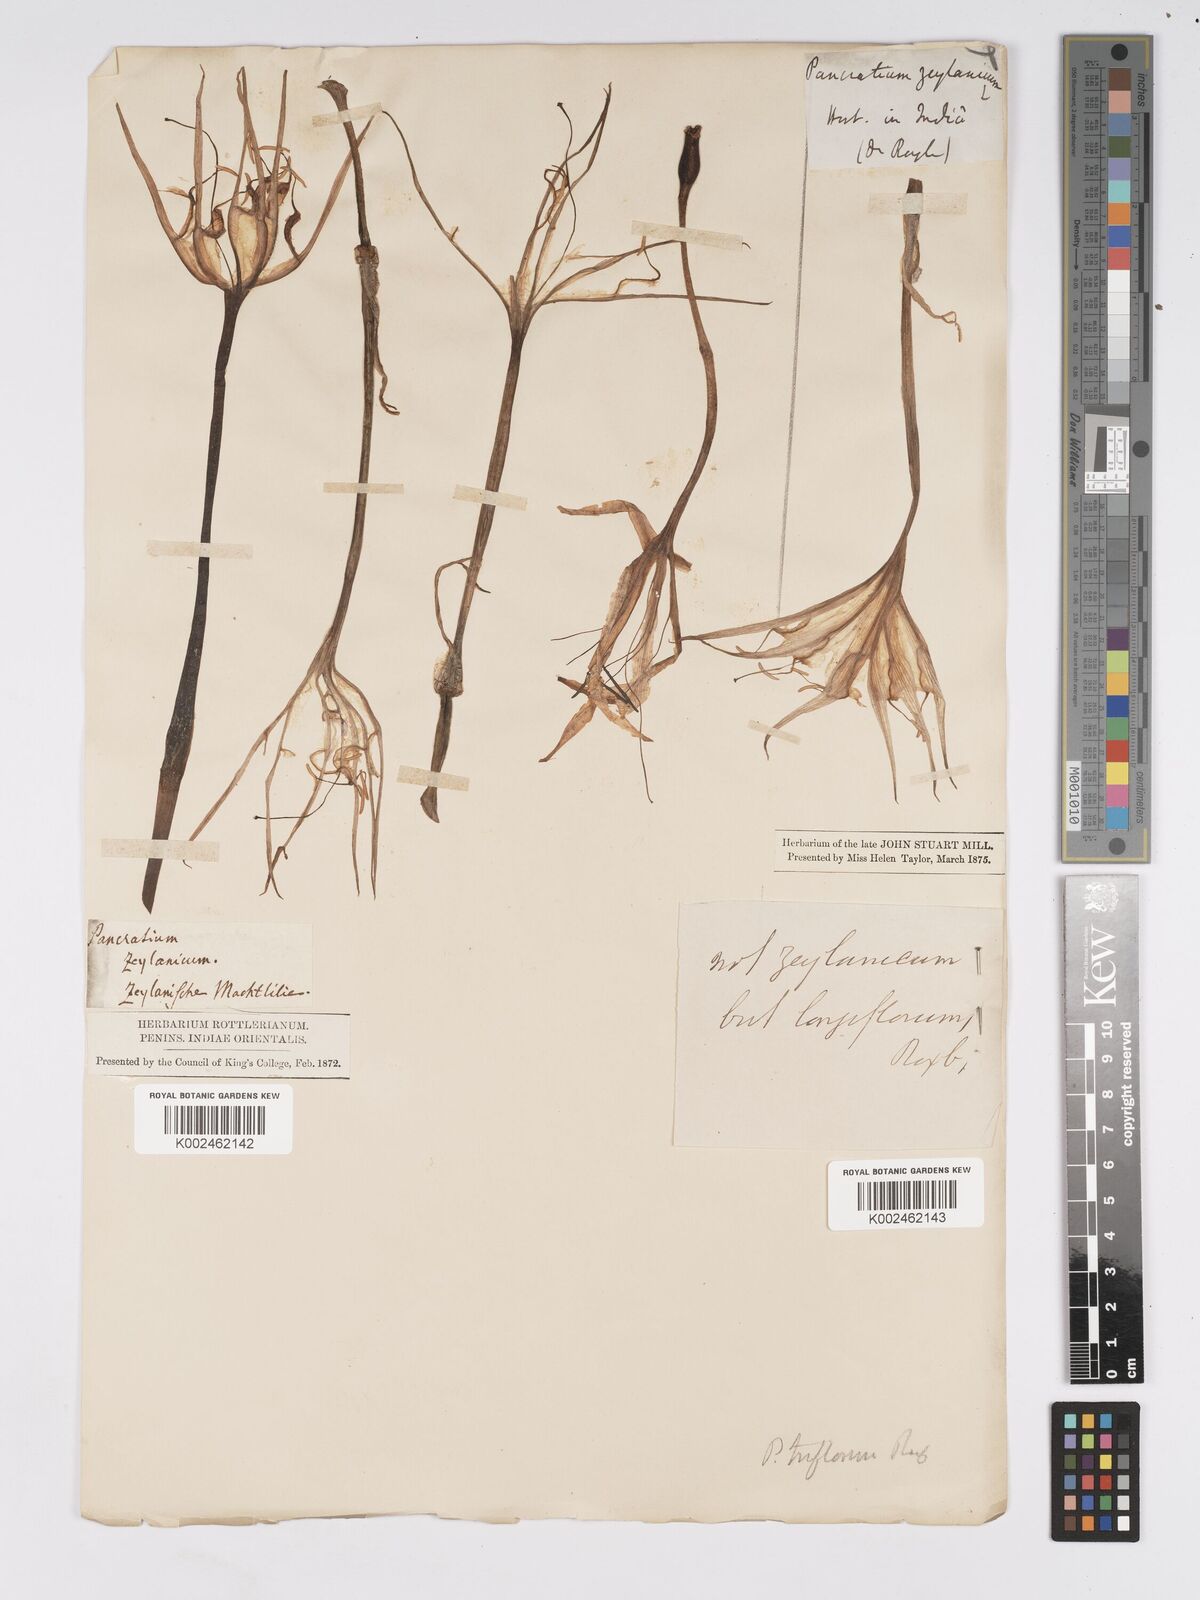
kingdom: Plantae
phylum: Tracheophyta
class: Liliopsida
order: Asparagales
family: Amaryllidaceae
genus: Pancratium
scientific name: Pancratium longiflorum
